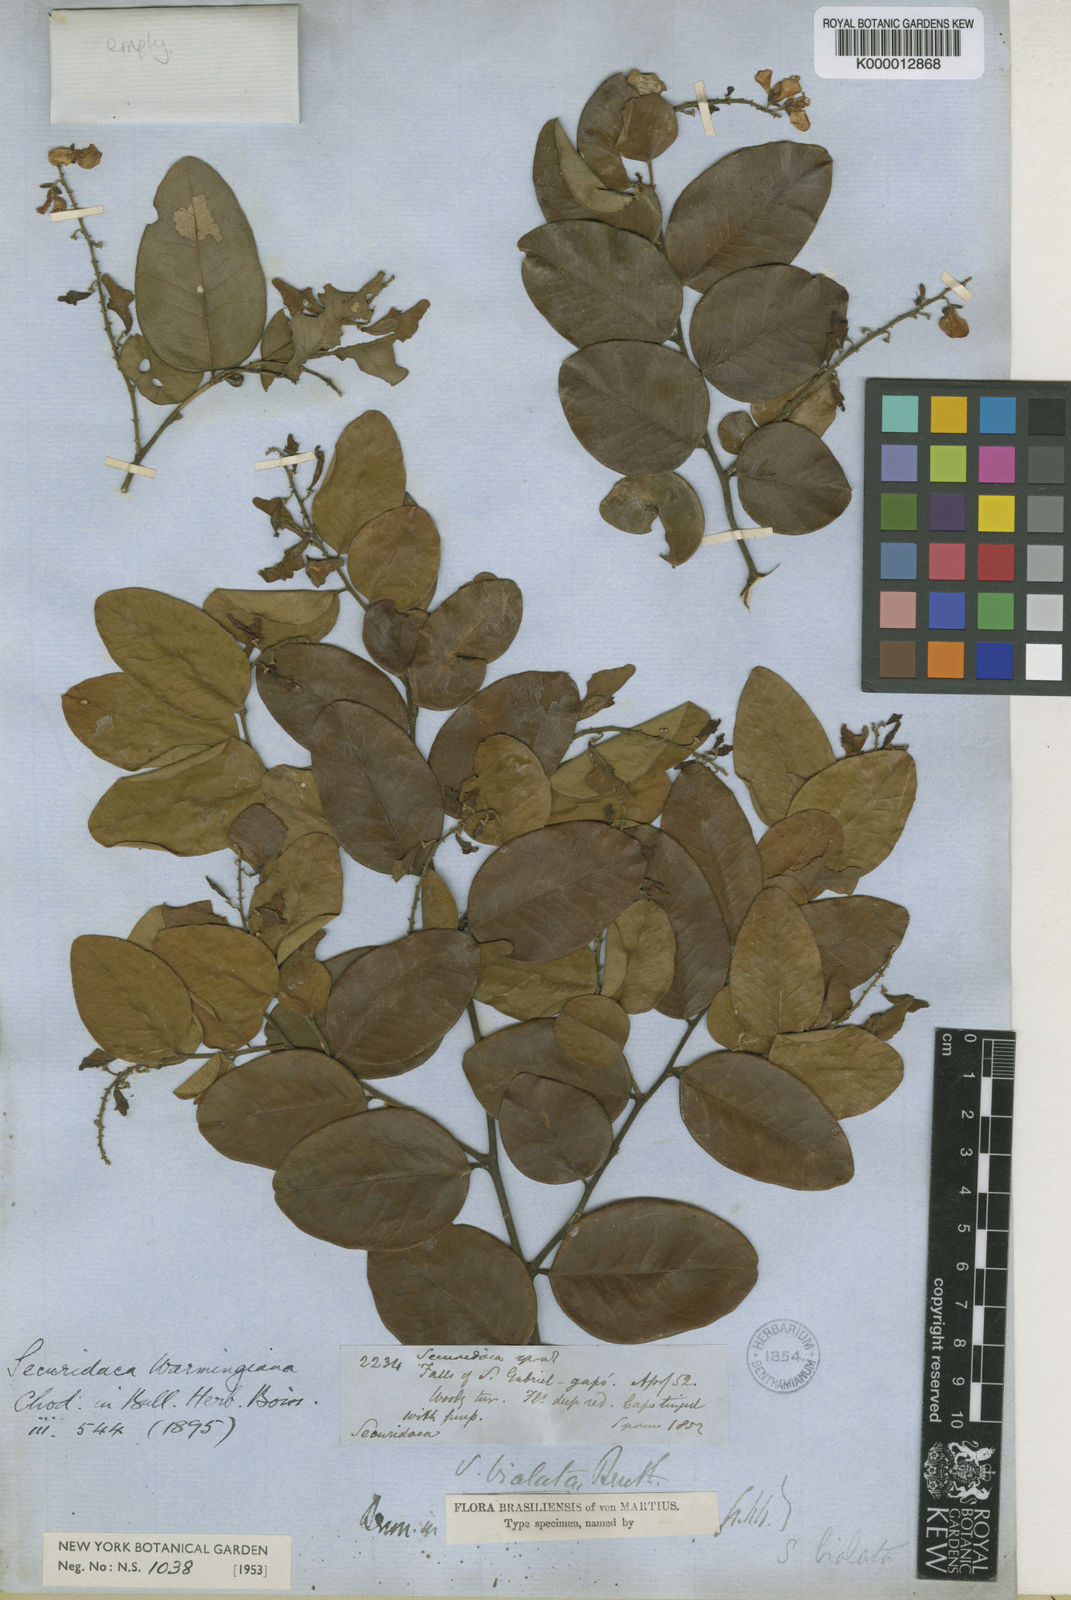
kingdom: Plantae
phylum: Tracheophyta
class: Magnoliopsida
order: Fabales
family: Polygalaceae
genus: Securidaca
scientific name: Securidaca warmingiana
